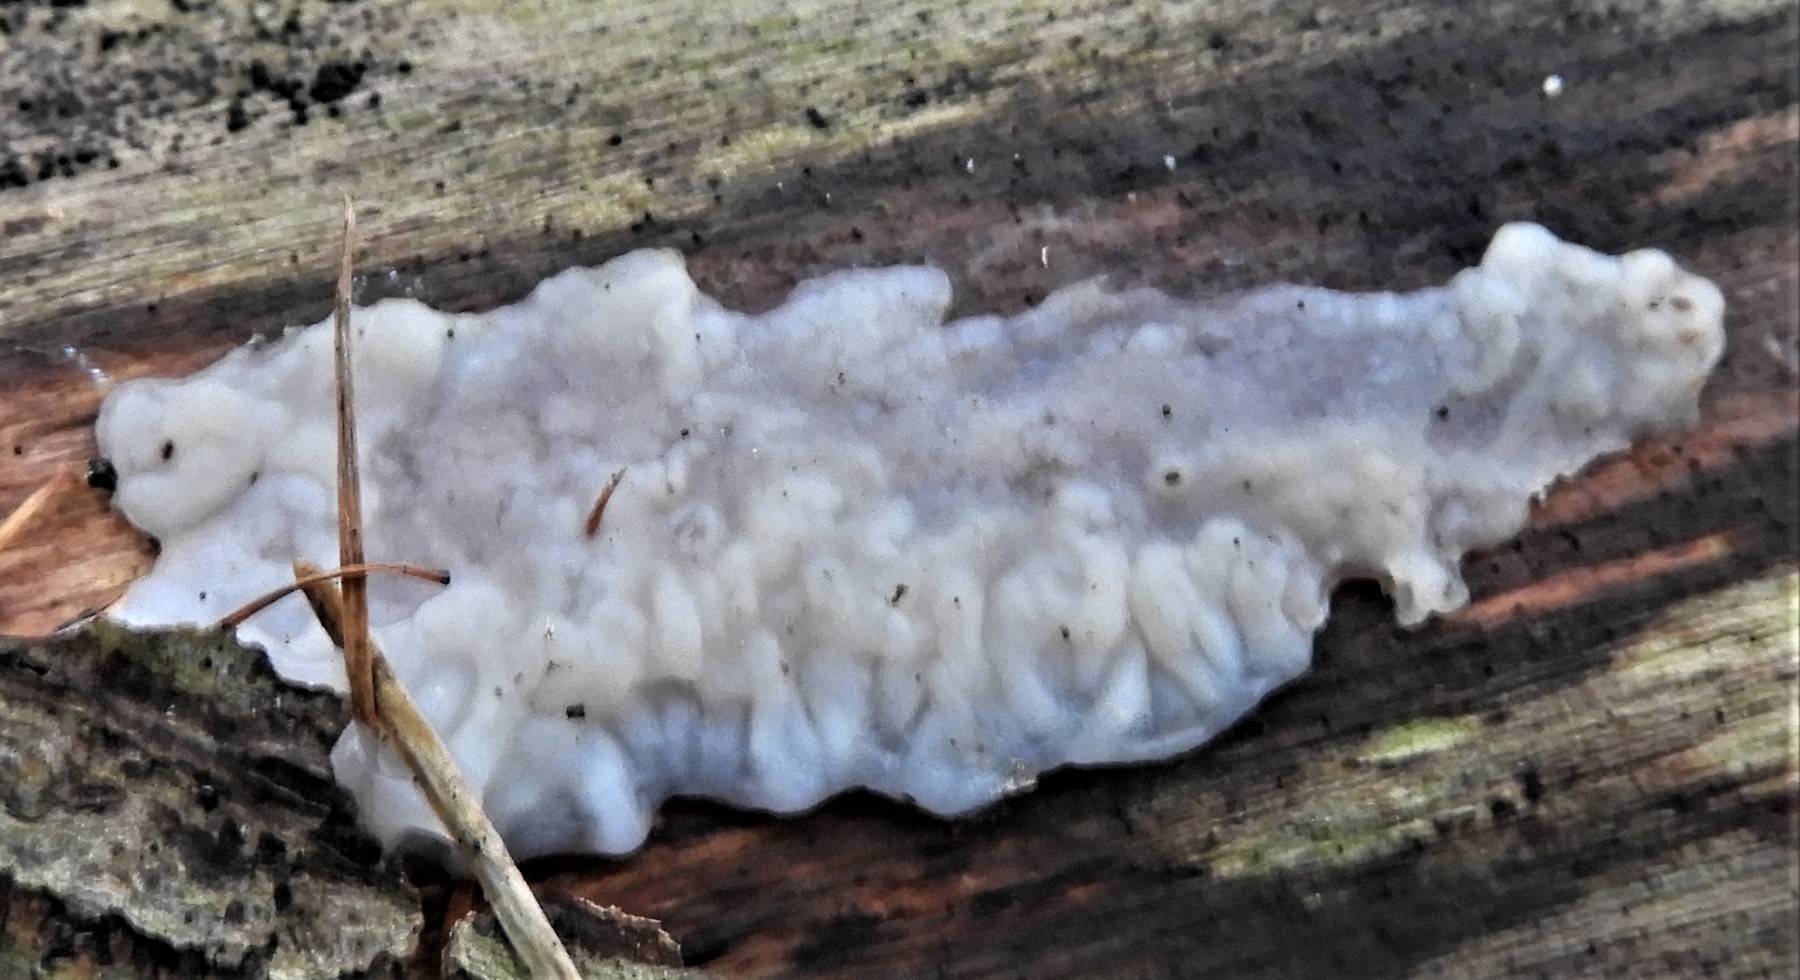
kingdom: Fungi
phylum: Basidiomycota
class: Agaricomycetes
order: Auriculariales
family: Auriculariaceae
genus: Exidia
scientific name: Exidia thuretiana
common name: hvidlig bævretop
